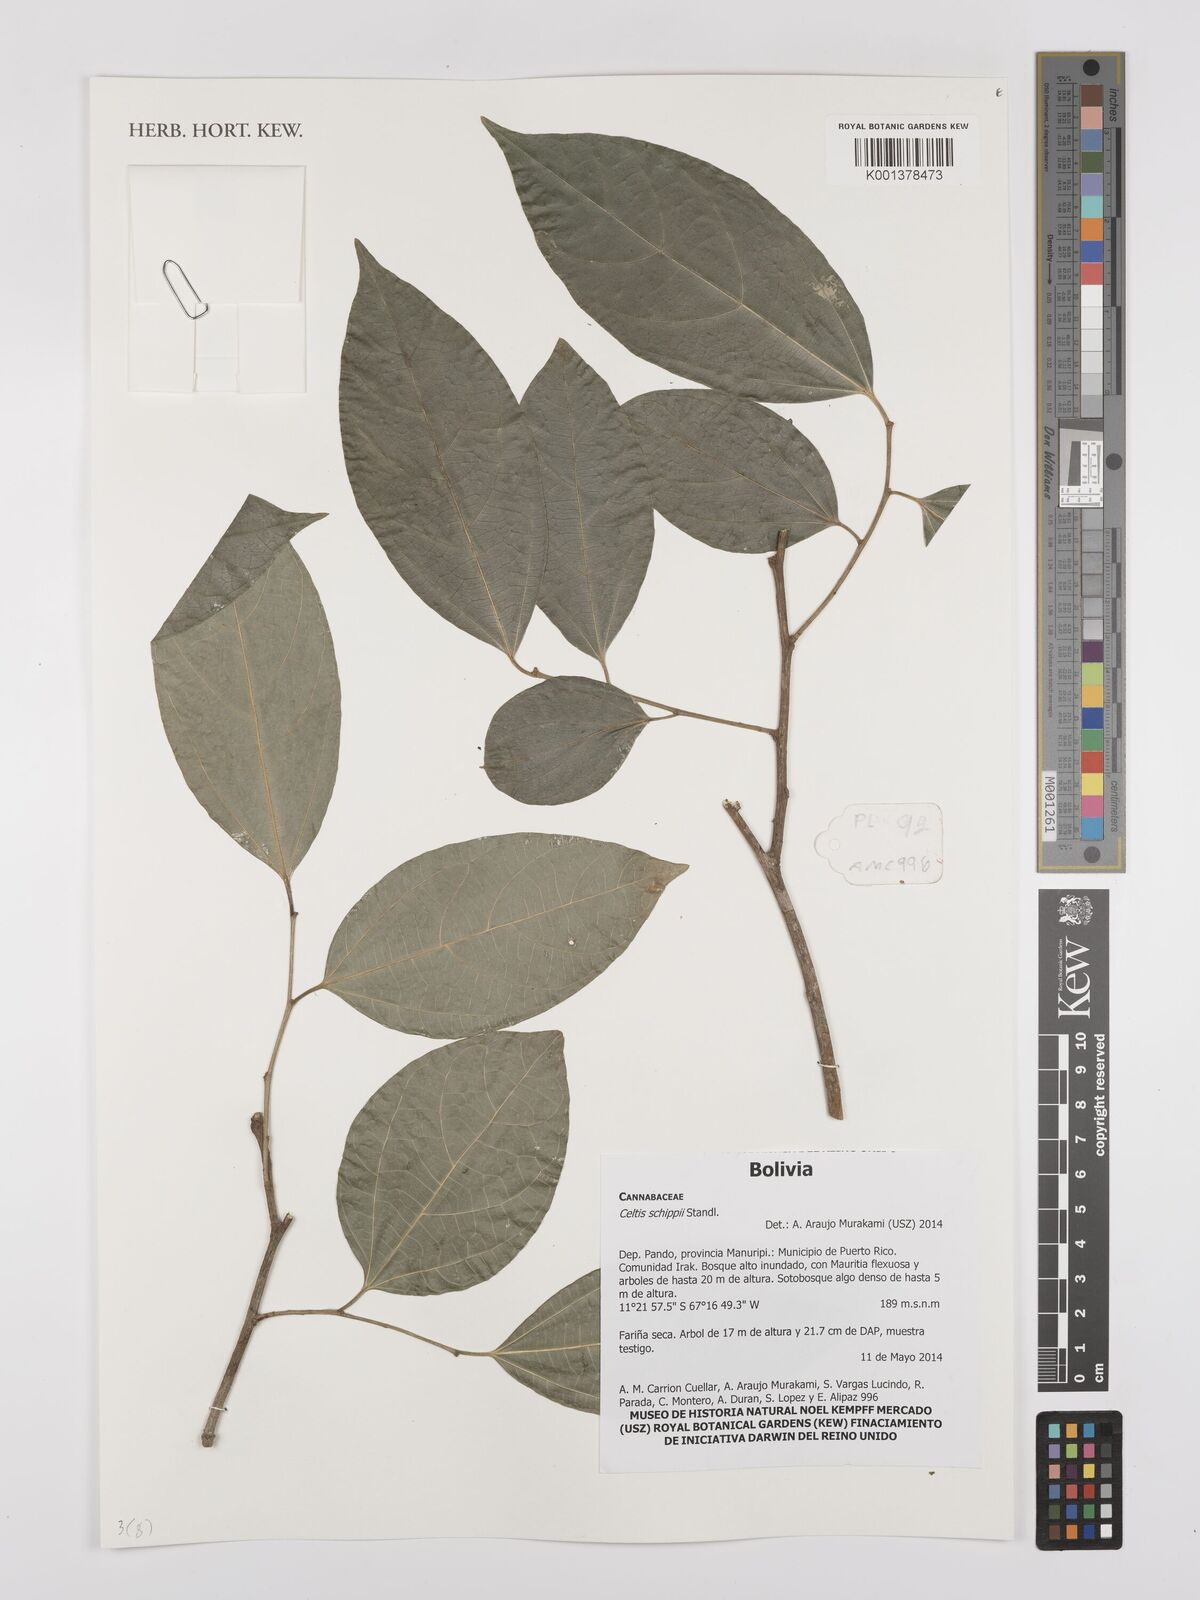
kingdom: Plantae
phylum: Tracheophyta
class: Magnoliopsida
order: Rosales
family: Cannabaceae
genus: Celtis
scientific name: Celtis schippii
